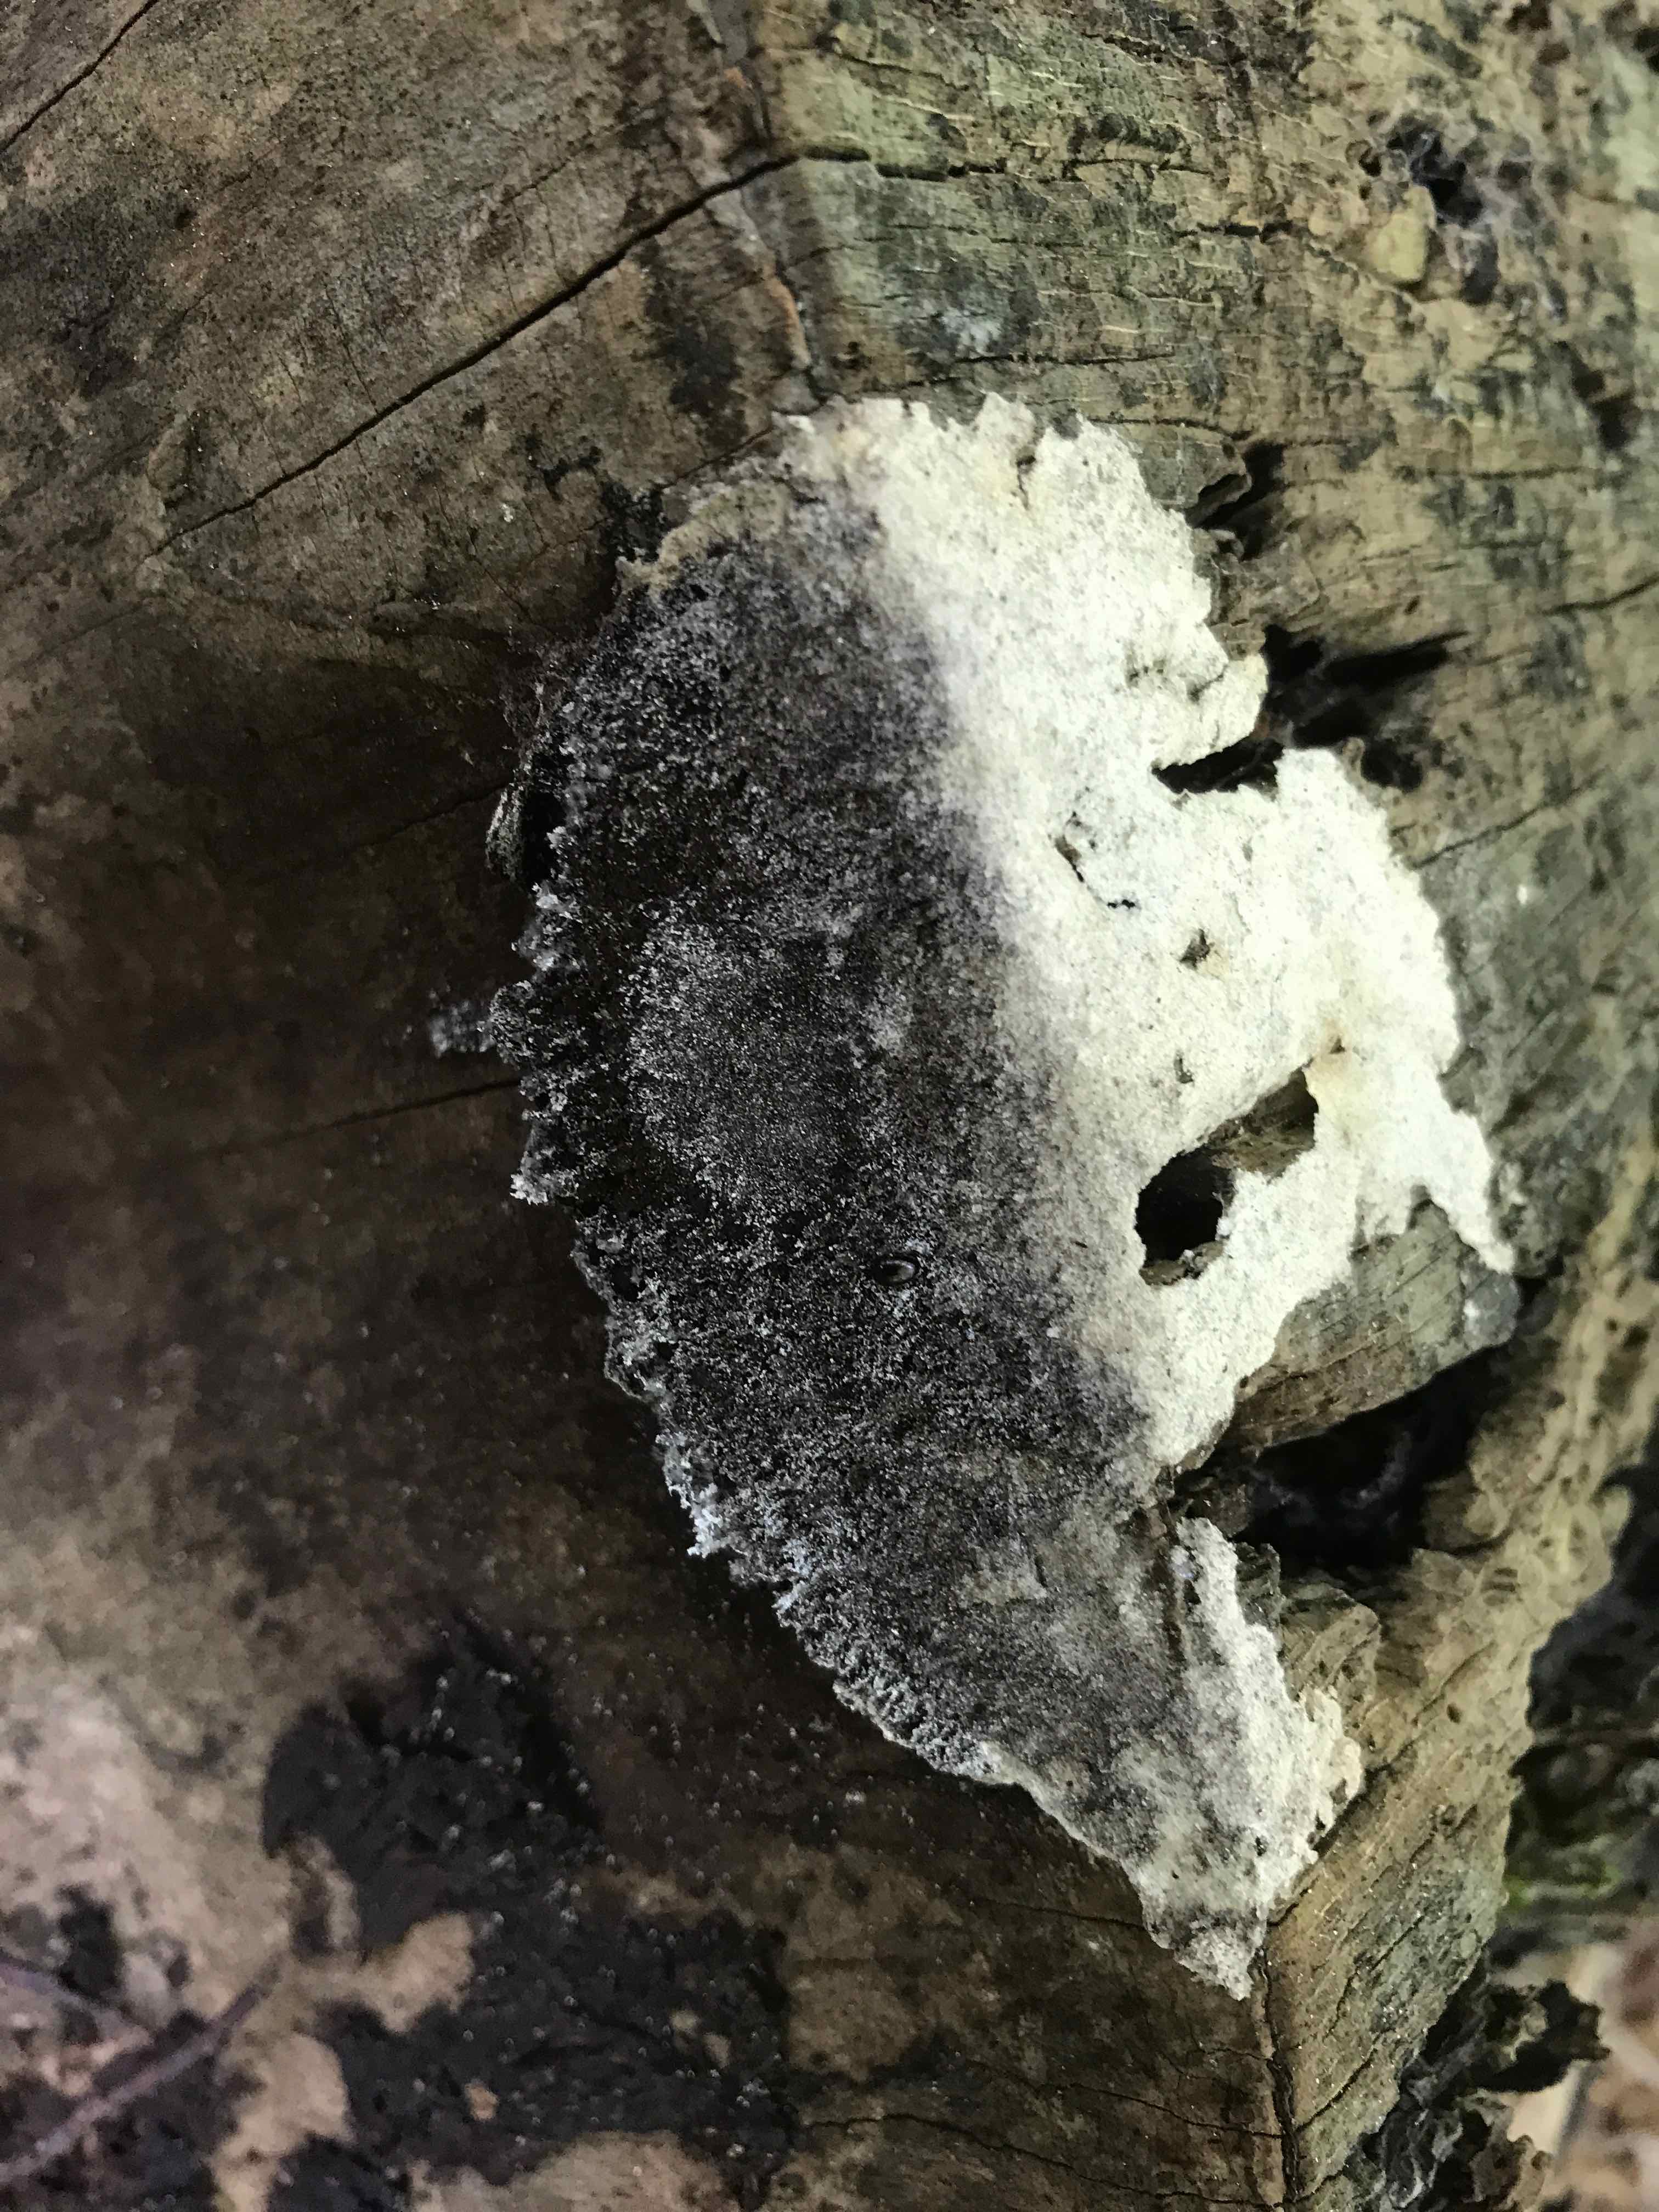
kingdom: Protozoa
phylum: Mycetozoa
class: Myxomycetes
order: Physarales
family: Physaraceae
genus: Fuligo
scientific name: Fuligo
